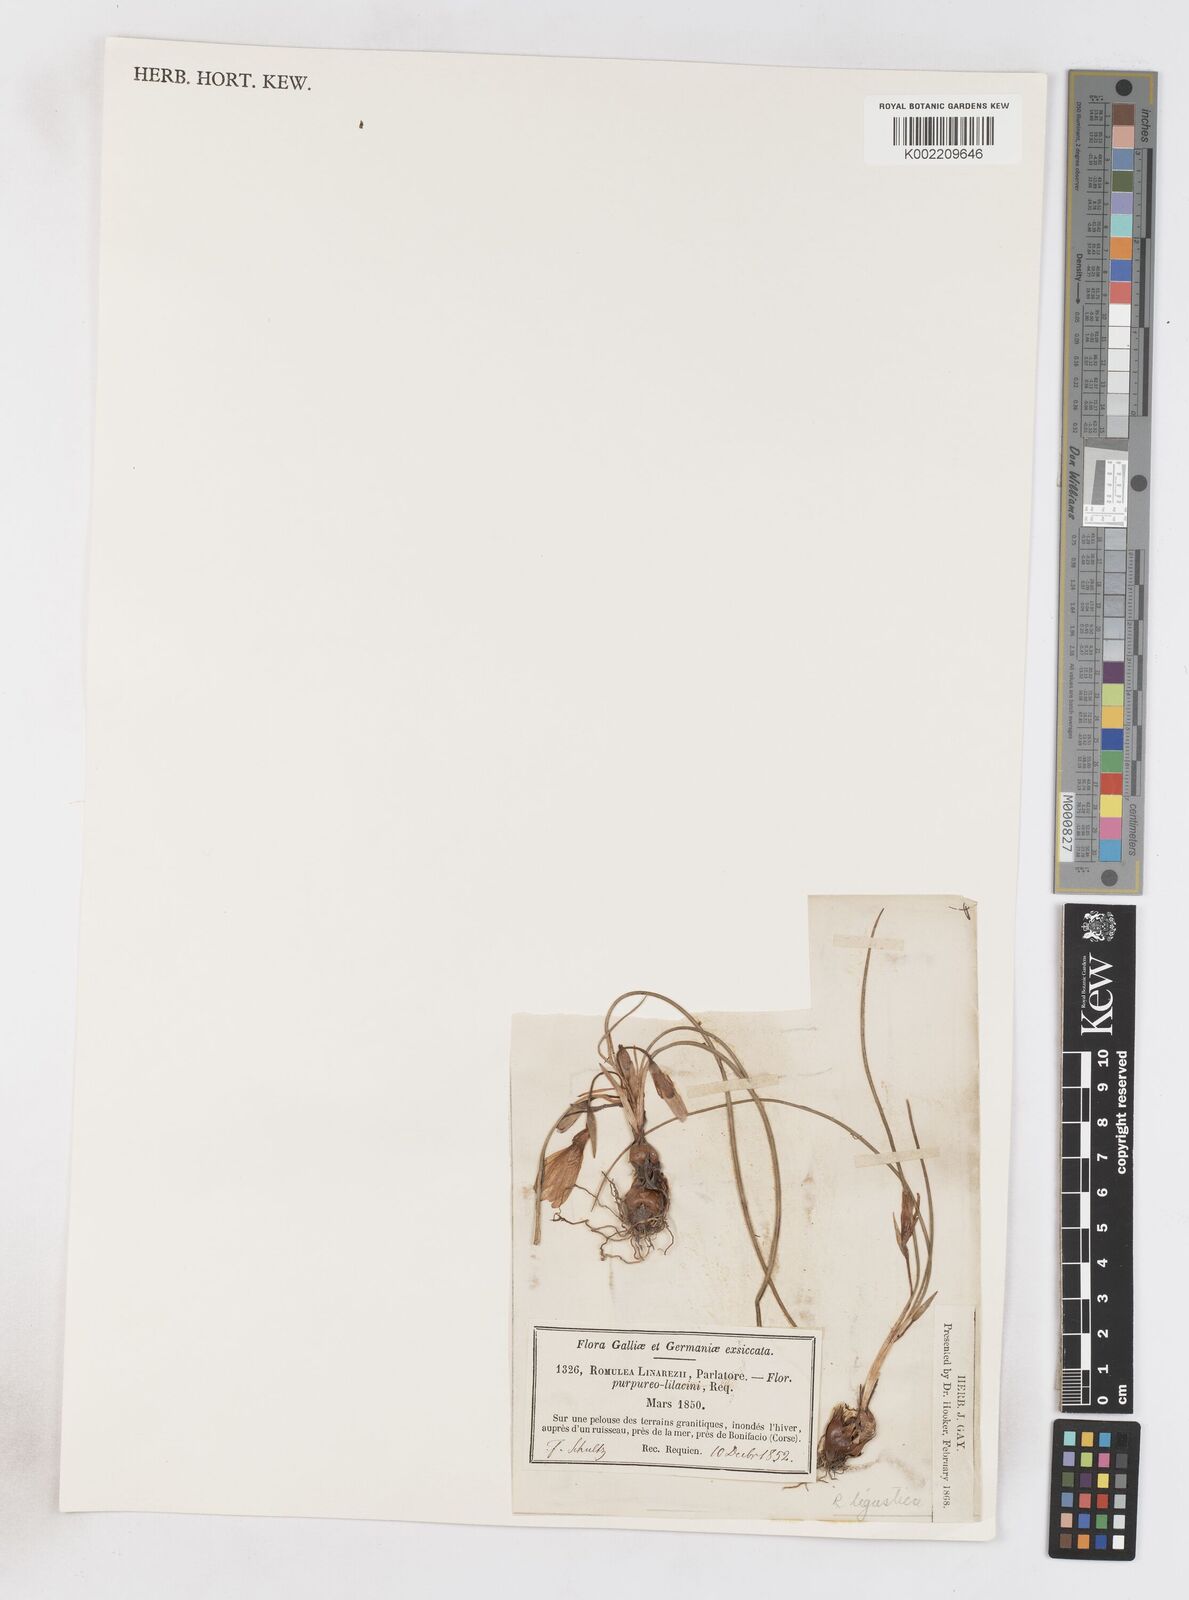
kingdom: Plantae
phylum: Tracheophyta
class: Liliopsida
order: Asparagales
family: Iridaceae
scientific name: Iridaceae
